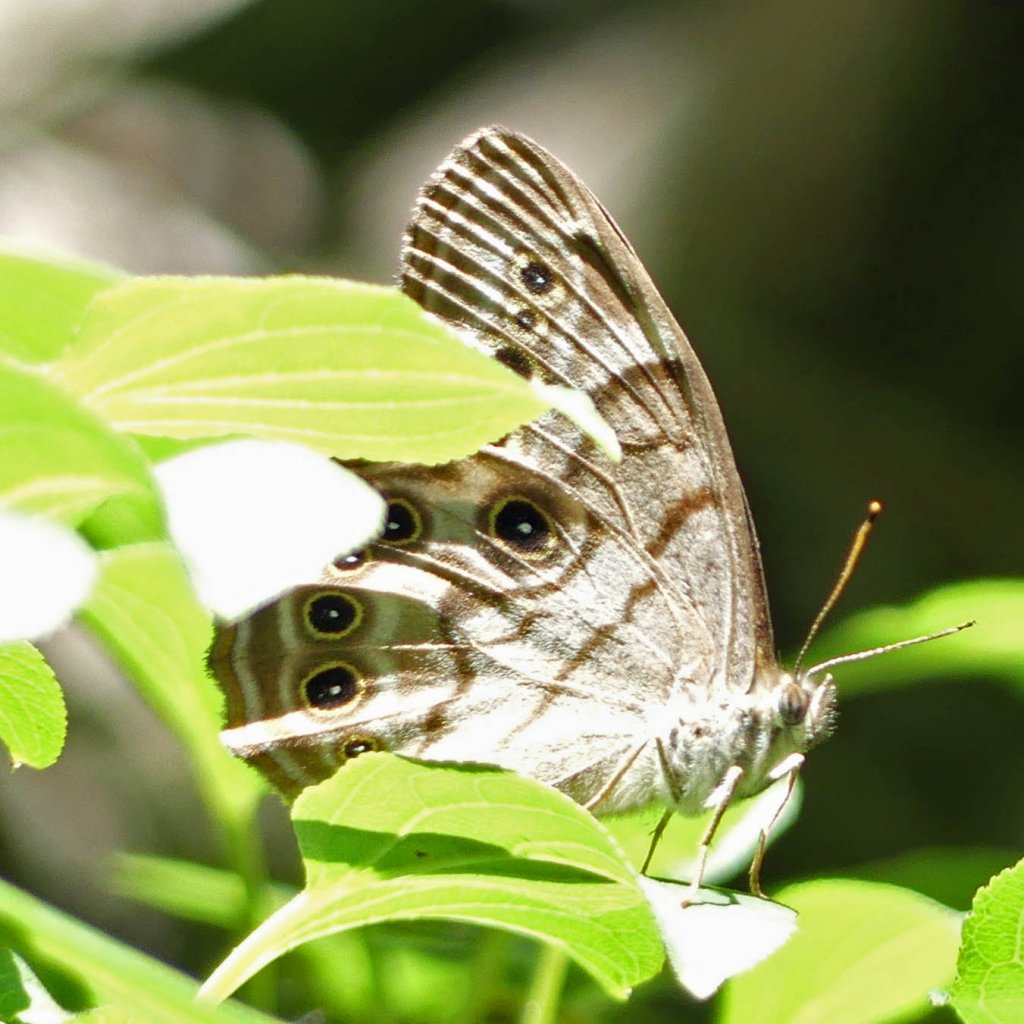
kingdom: Animalia
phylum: Arthropoda
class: Insecta
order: Lepidoptera
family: Nymphalidae
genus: Lethe
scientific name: Lethe anthedon
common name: Northern Pearly-Eye
